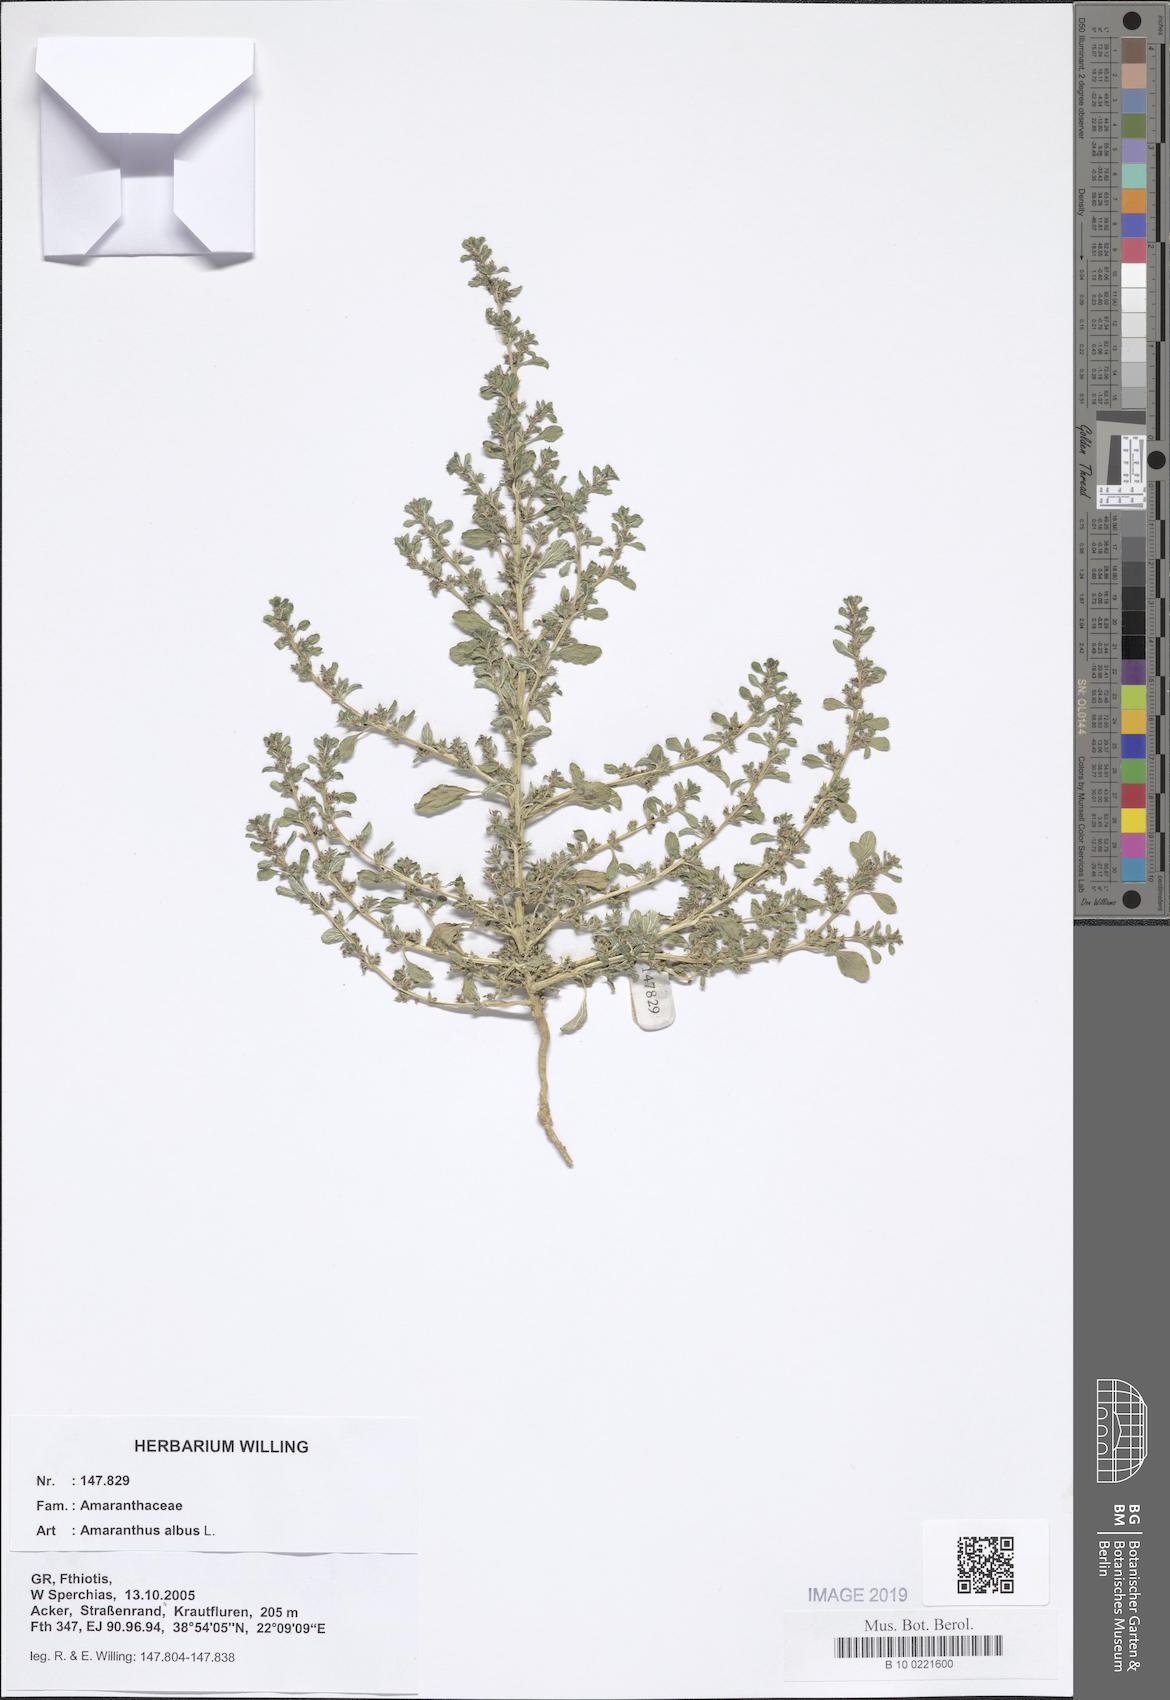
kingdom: Plantae
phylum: Tracheophyta
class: Magnoliopsida
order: Caryophyllales
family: Amaranthaceae
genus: Amaranthus
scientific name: Amaranthus albus
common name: White pigweed
